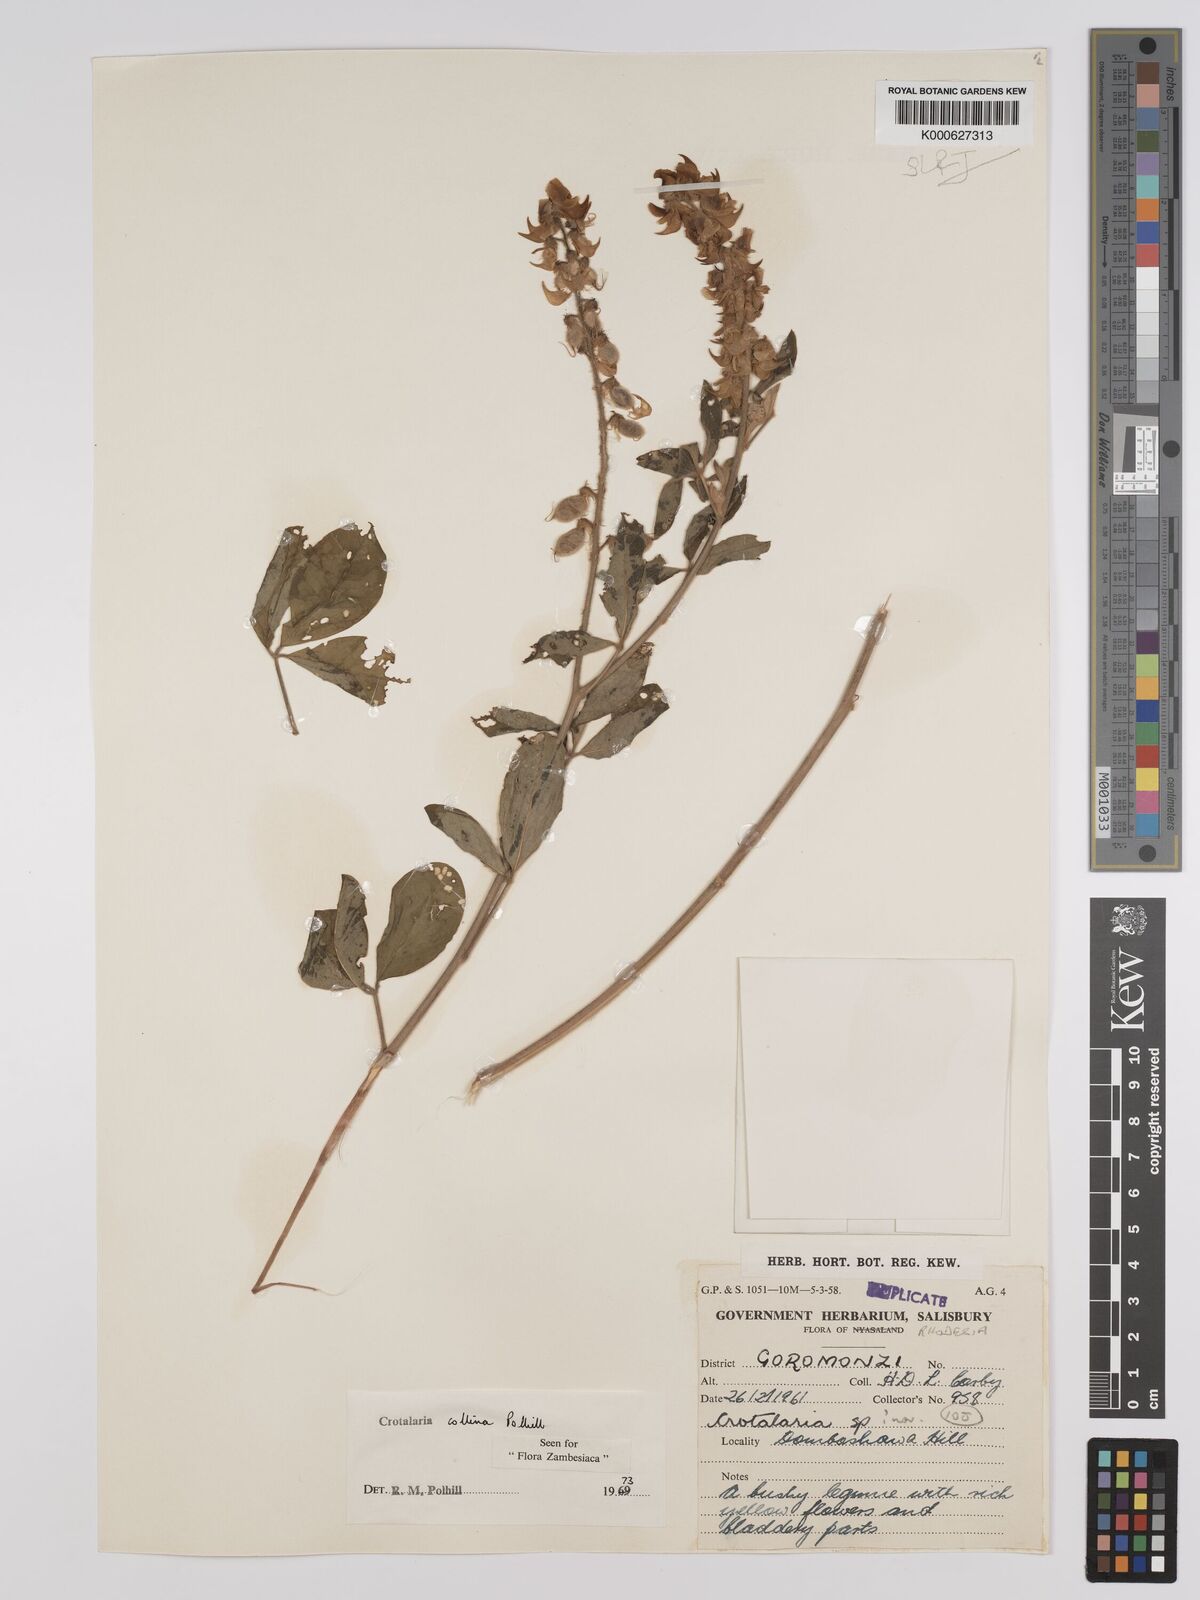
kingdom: Plantae
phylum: Tracheophyta
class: Magnoliopsida
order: Fabales
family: Fabaceae
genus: Crotalaria
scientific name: Crotalaria collina
